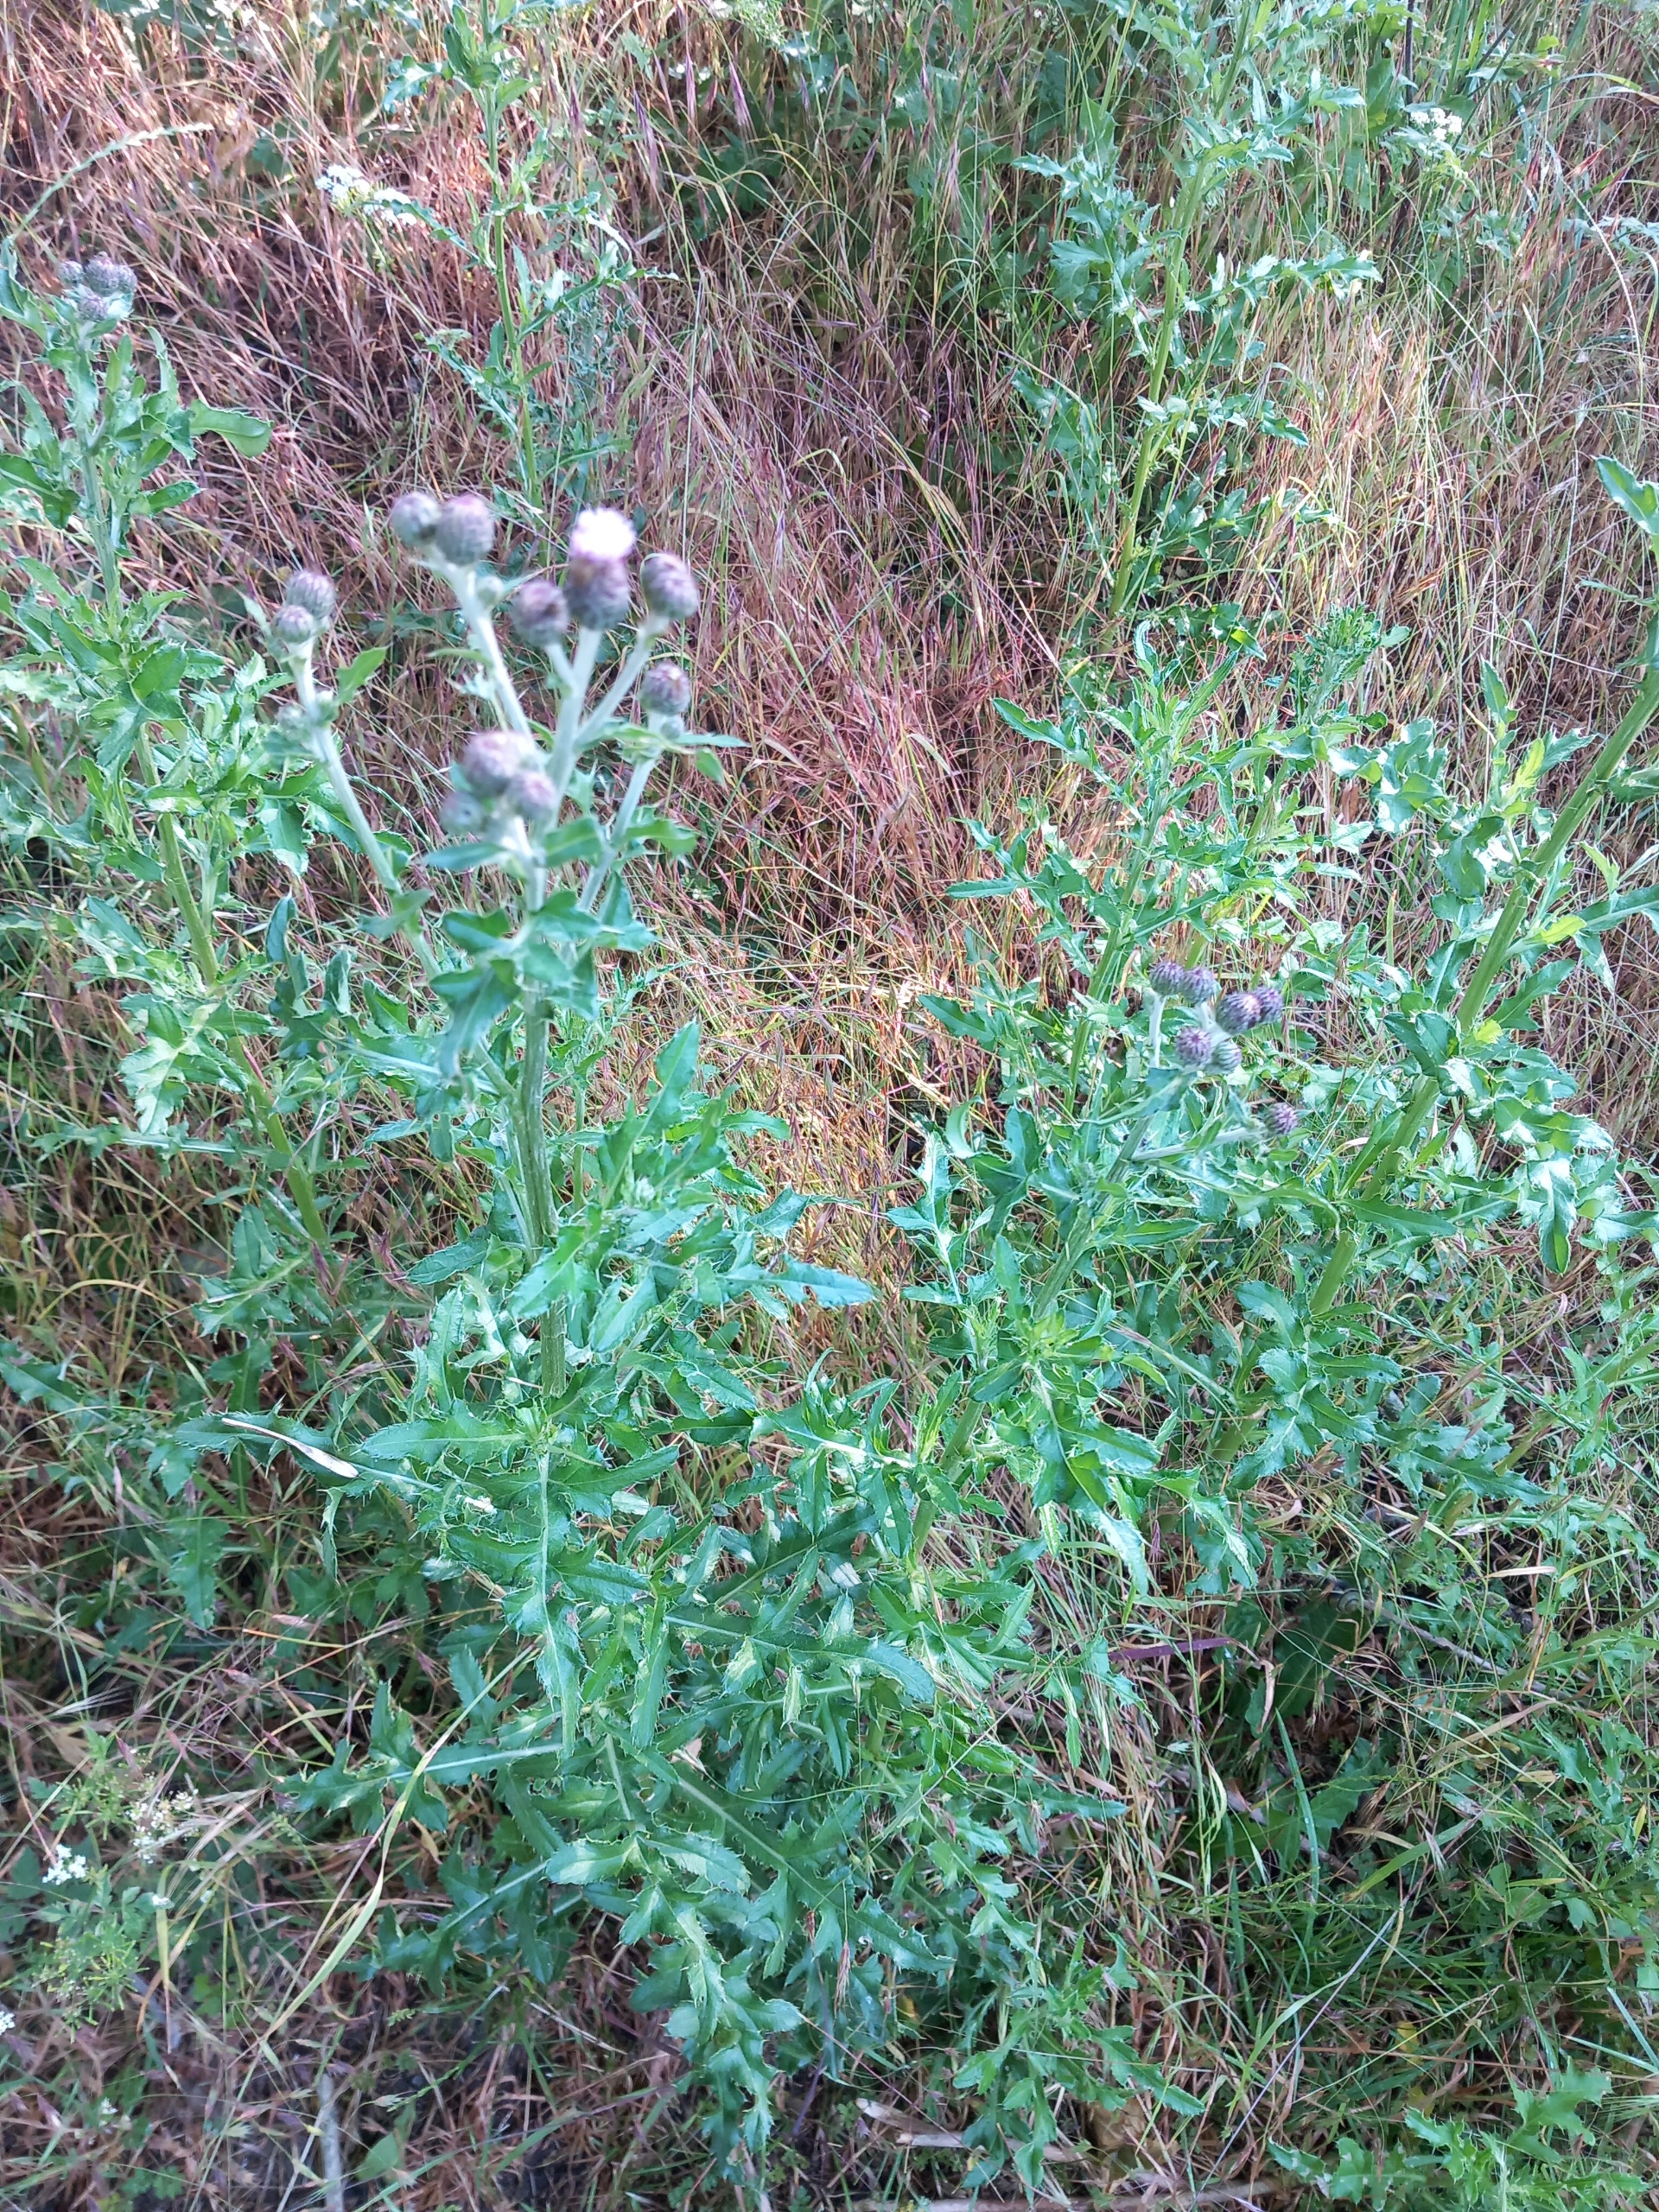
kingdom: Plantae
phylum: Tracheophyta
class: Magnoliopsida
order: Asterales
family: Asteraceae
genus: Cirsium
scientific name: Cirsium arvense
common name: Ager-tidsel
